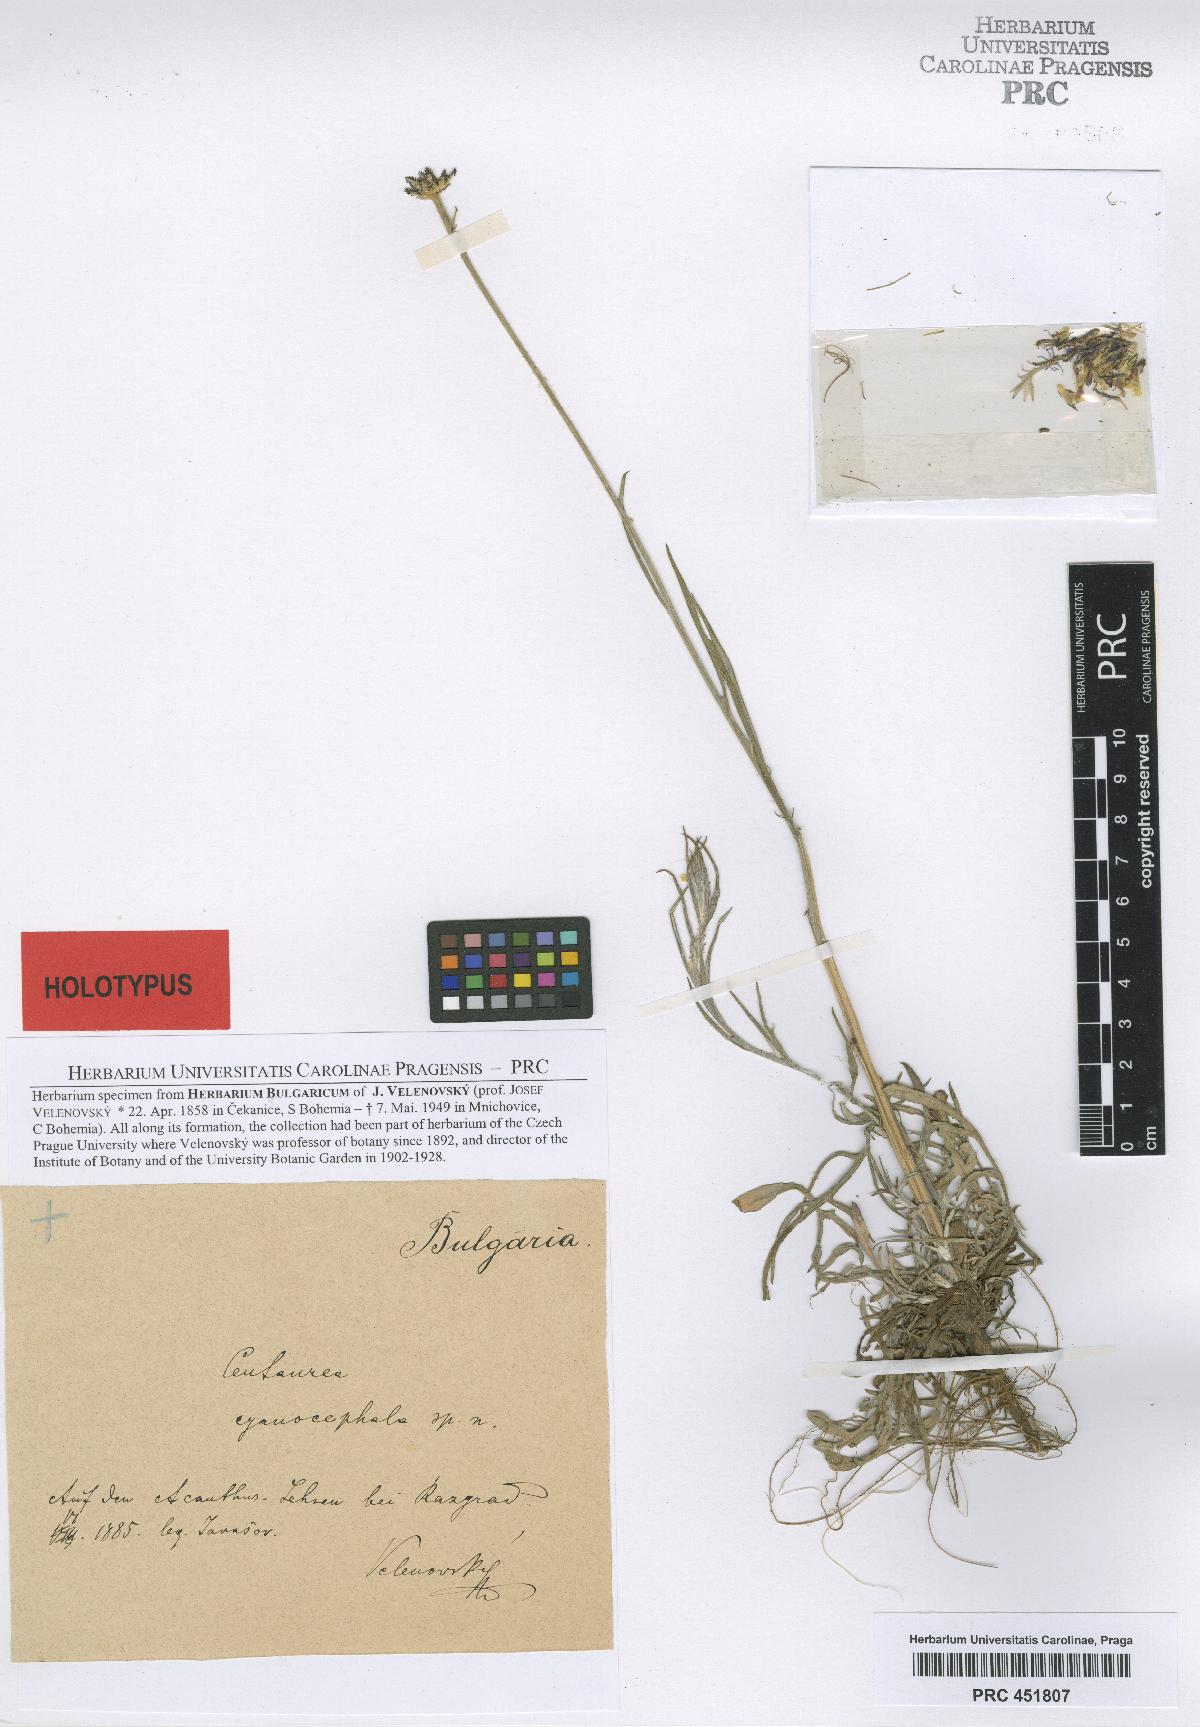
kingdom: Plantae
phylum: Tracheophyta
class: Magnoliopsida
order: Asterales
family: Asteraceae
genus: Centaurea
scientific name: Centaurea cyanus
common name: Cornflower
